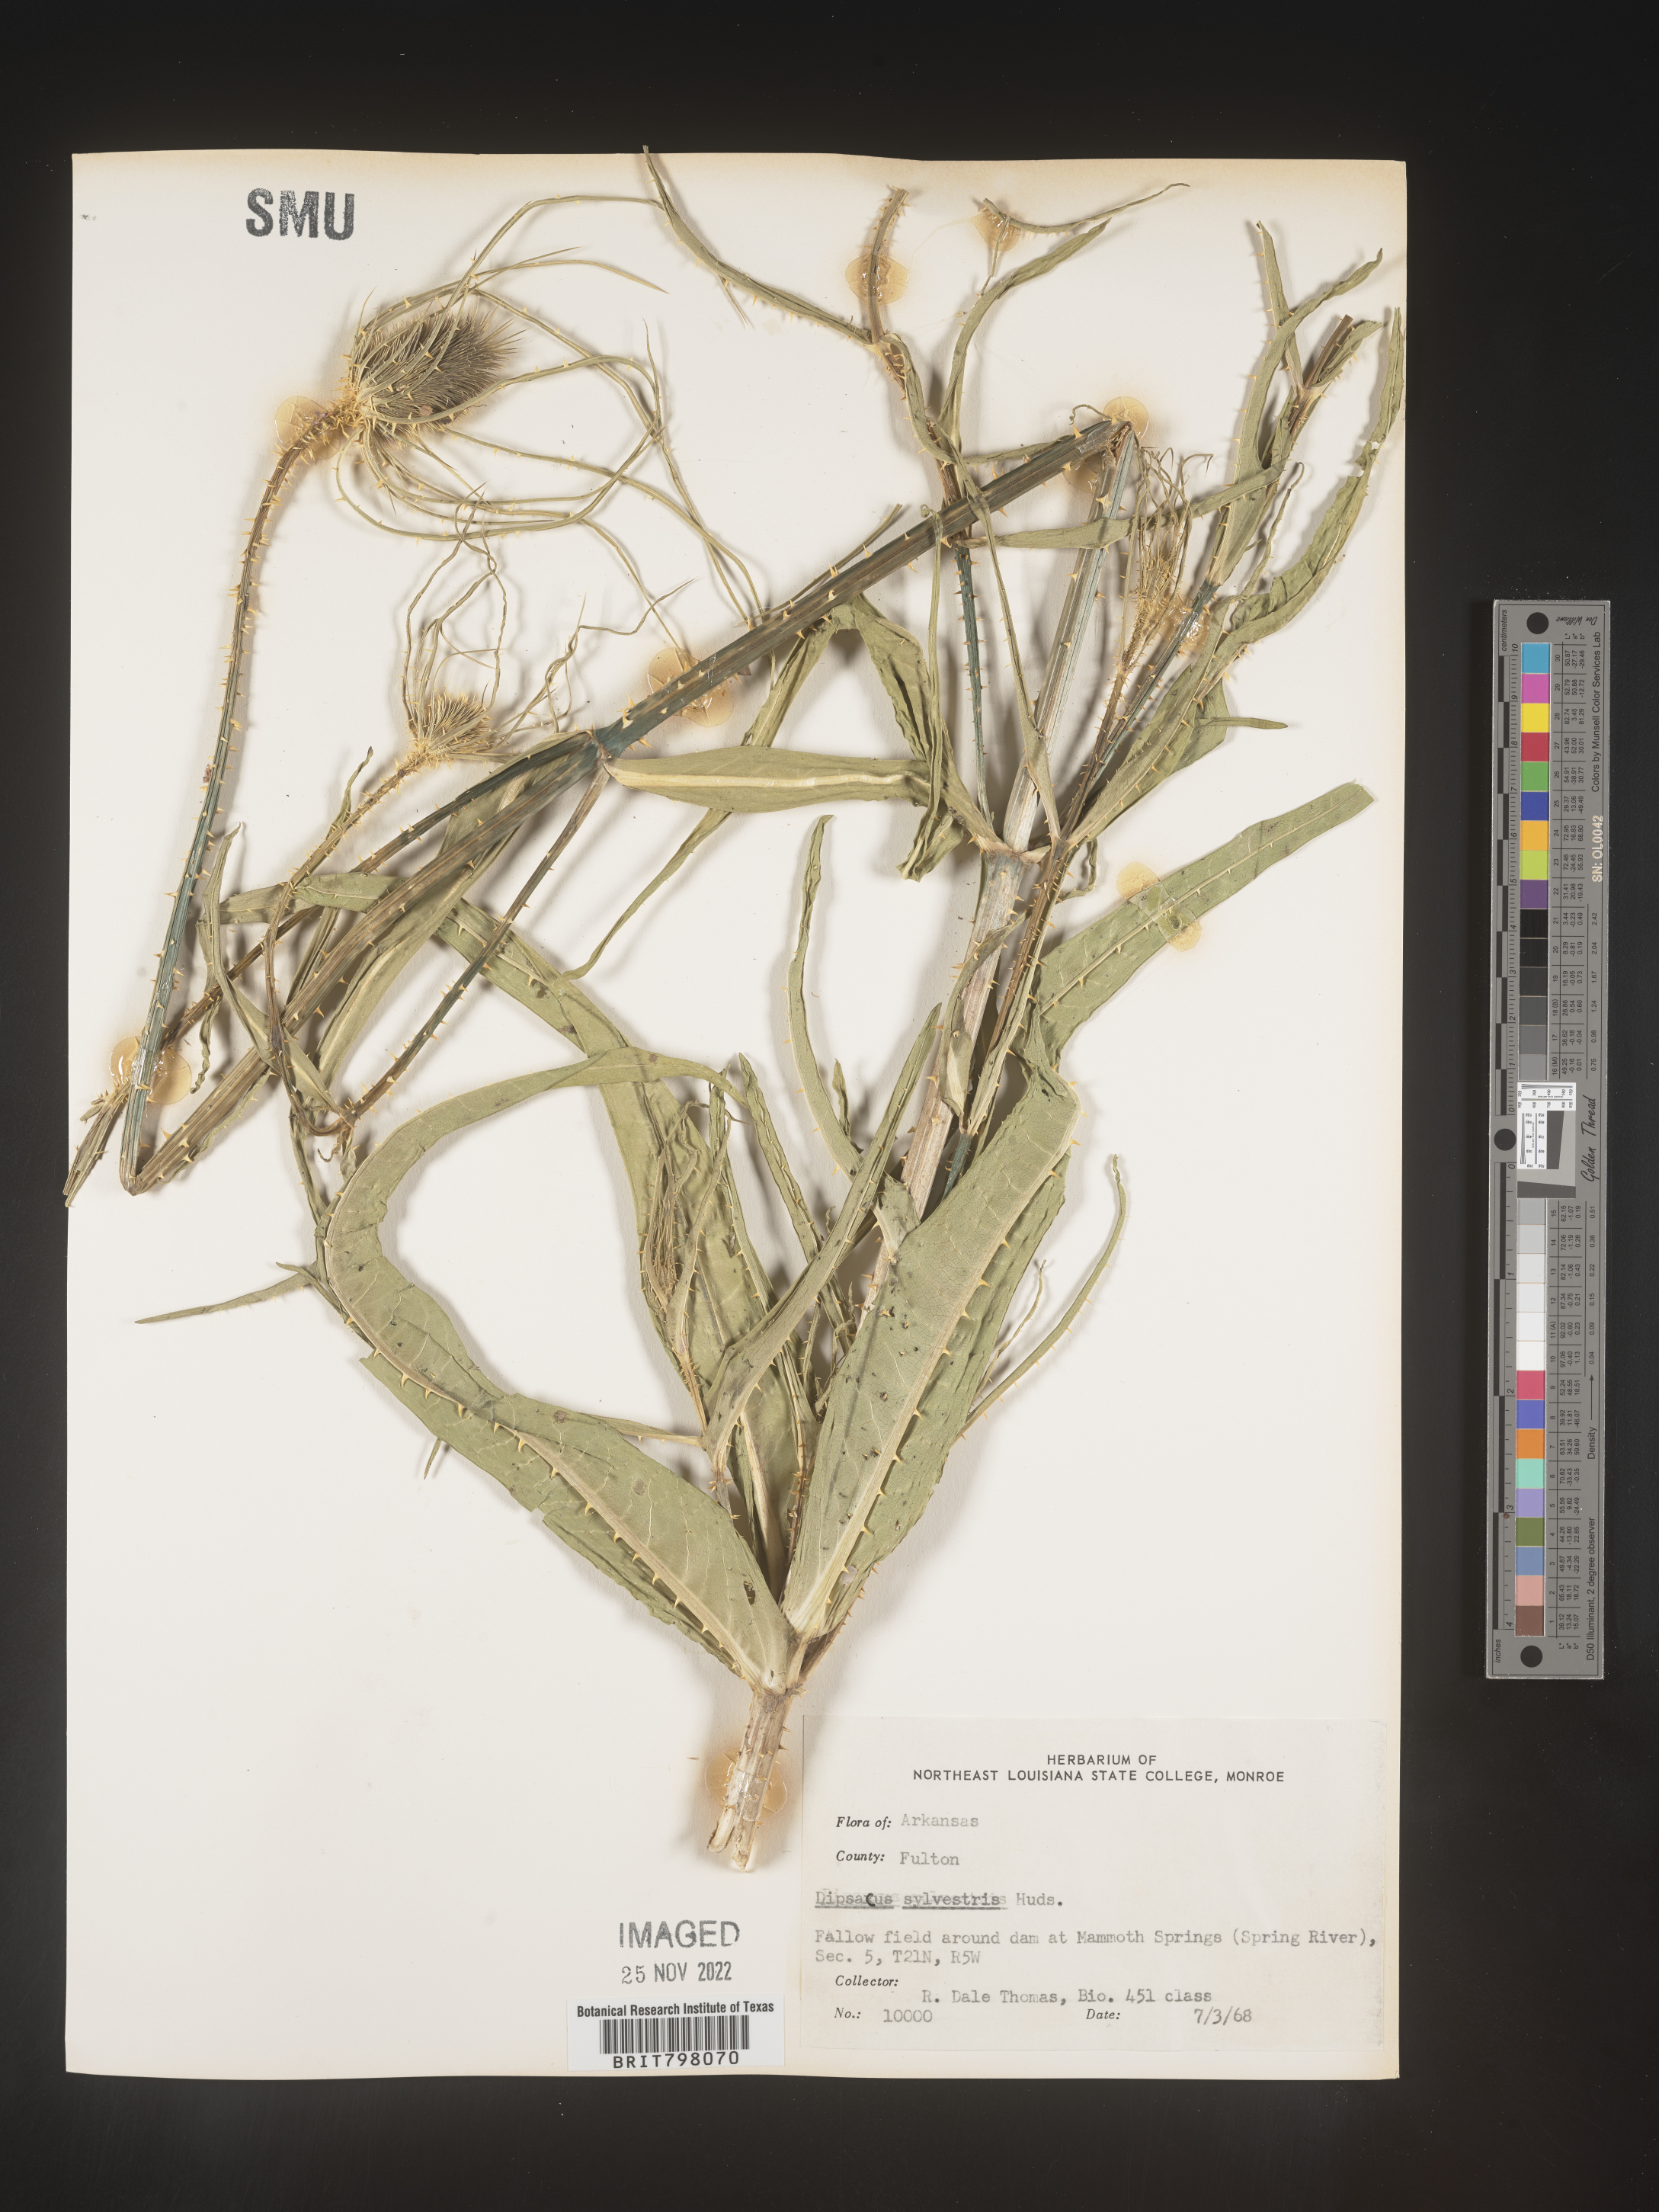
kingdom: Plantae
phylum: Tracheophyta
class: Magnoliopsida
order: Dipsacales
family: Caprifoliaceae
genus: Dipsacus
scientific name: Dipsacus fullonum
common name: Teasel
